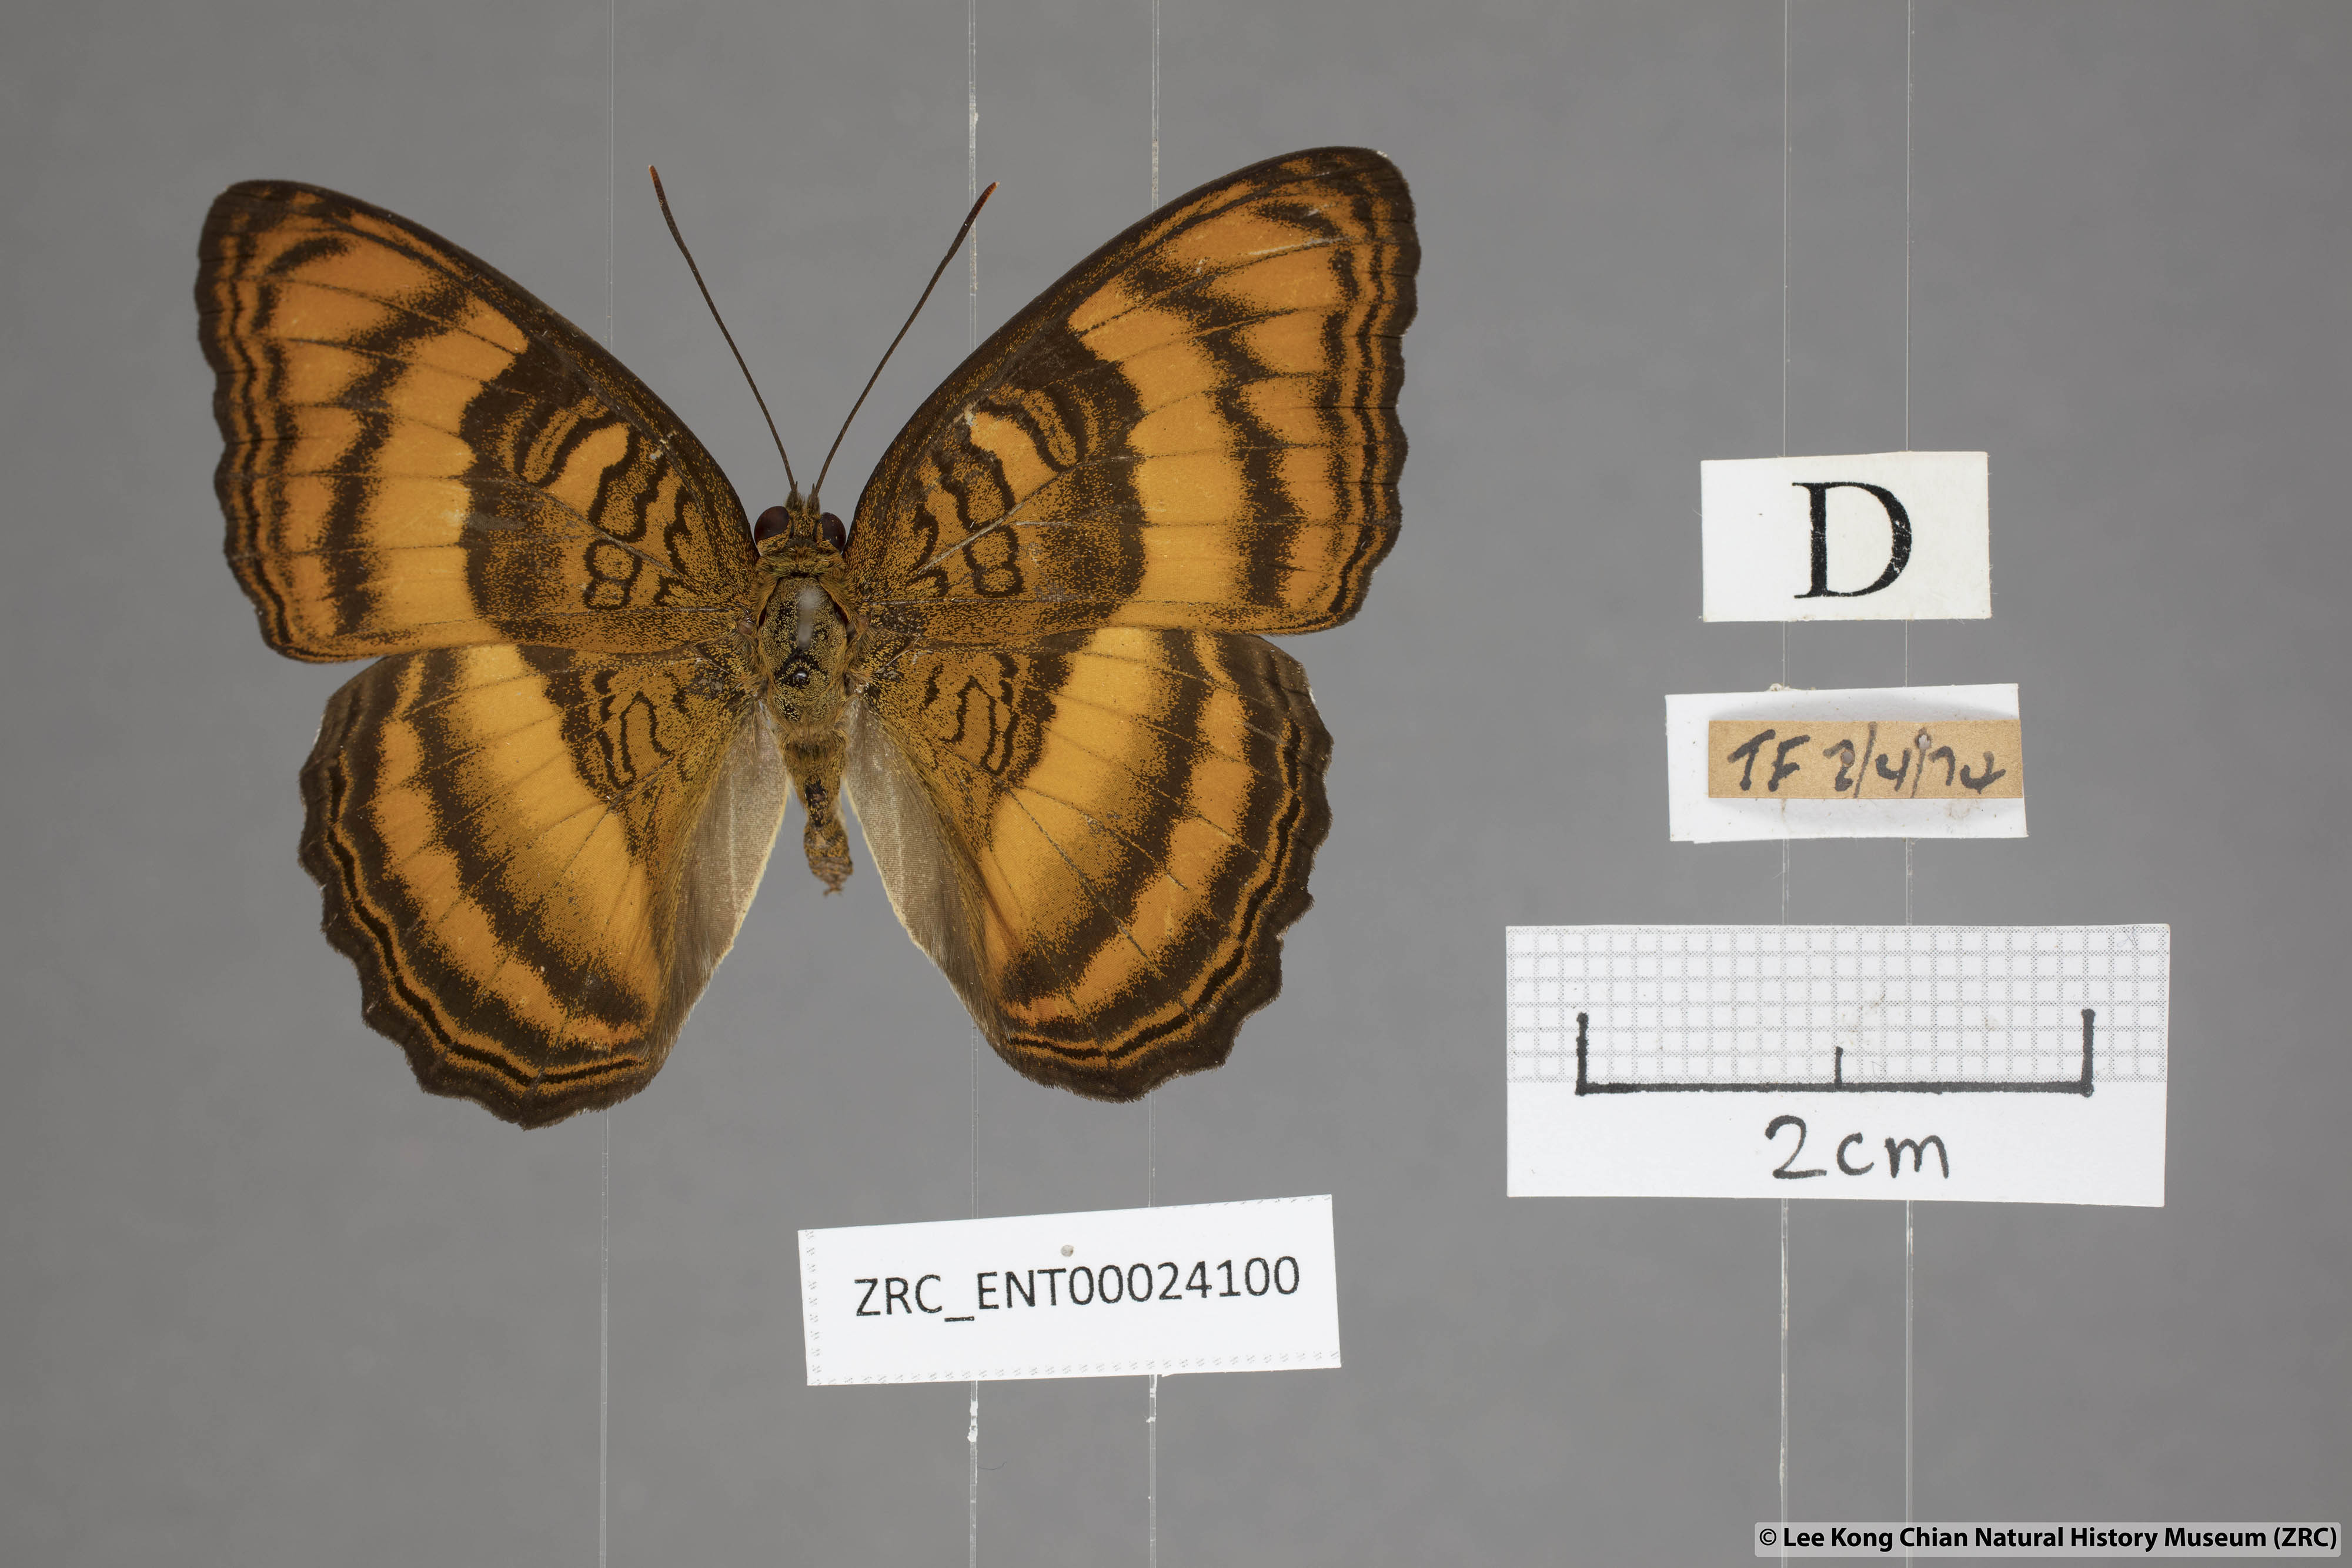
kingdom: Animalia
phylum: Arthropoda
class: Insecta
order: Lepidoptera
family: Nymphalidae
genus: Pandita
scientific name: Pandita sinope
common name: Colonel
